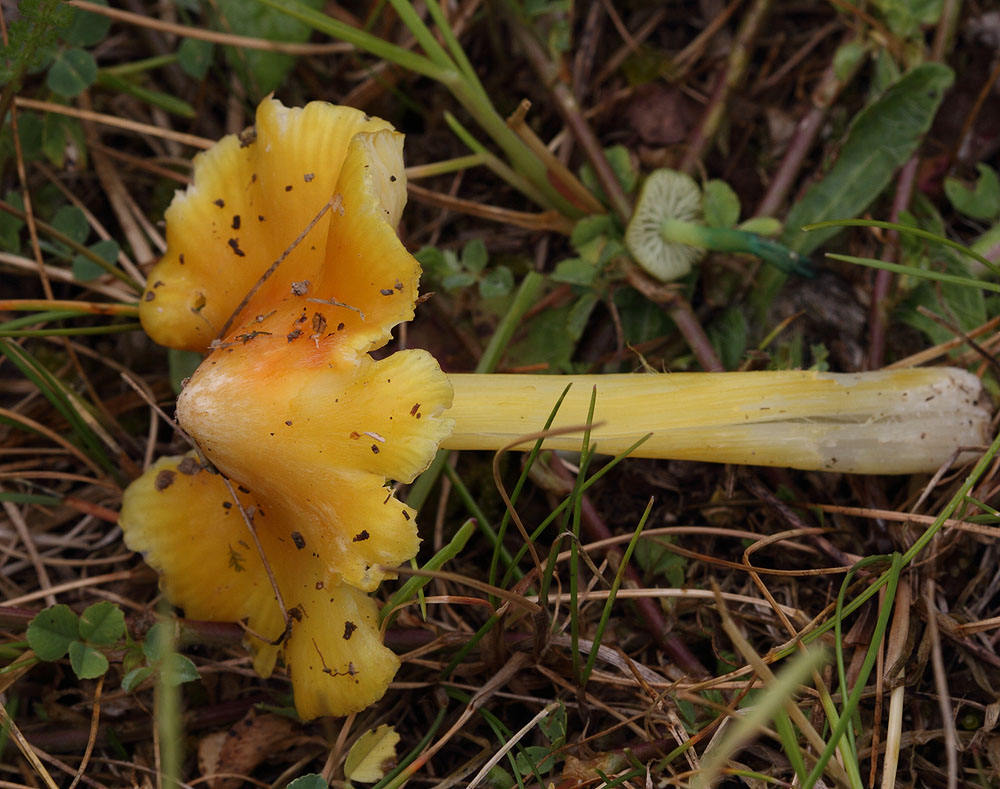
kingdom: Fungi
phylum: Basidiomycota
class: Agaricomycetes
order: Agaricales
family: Hygrophoraceae
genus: Hygrocybe
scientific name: Hygrocybe acutoconica
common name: Konrads vokshat
